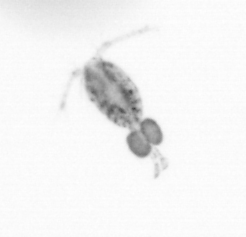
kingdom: Animalia
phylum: Arthropoda
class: Copepoda
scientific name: Copepoda
